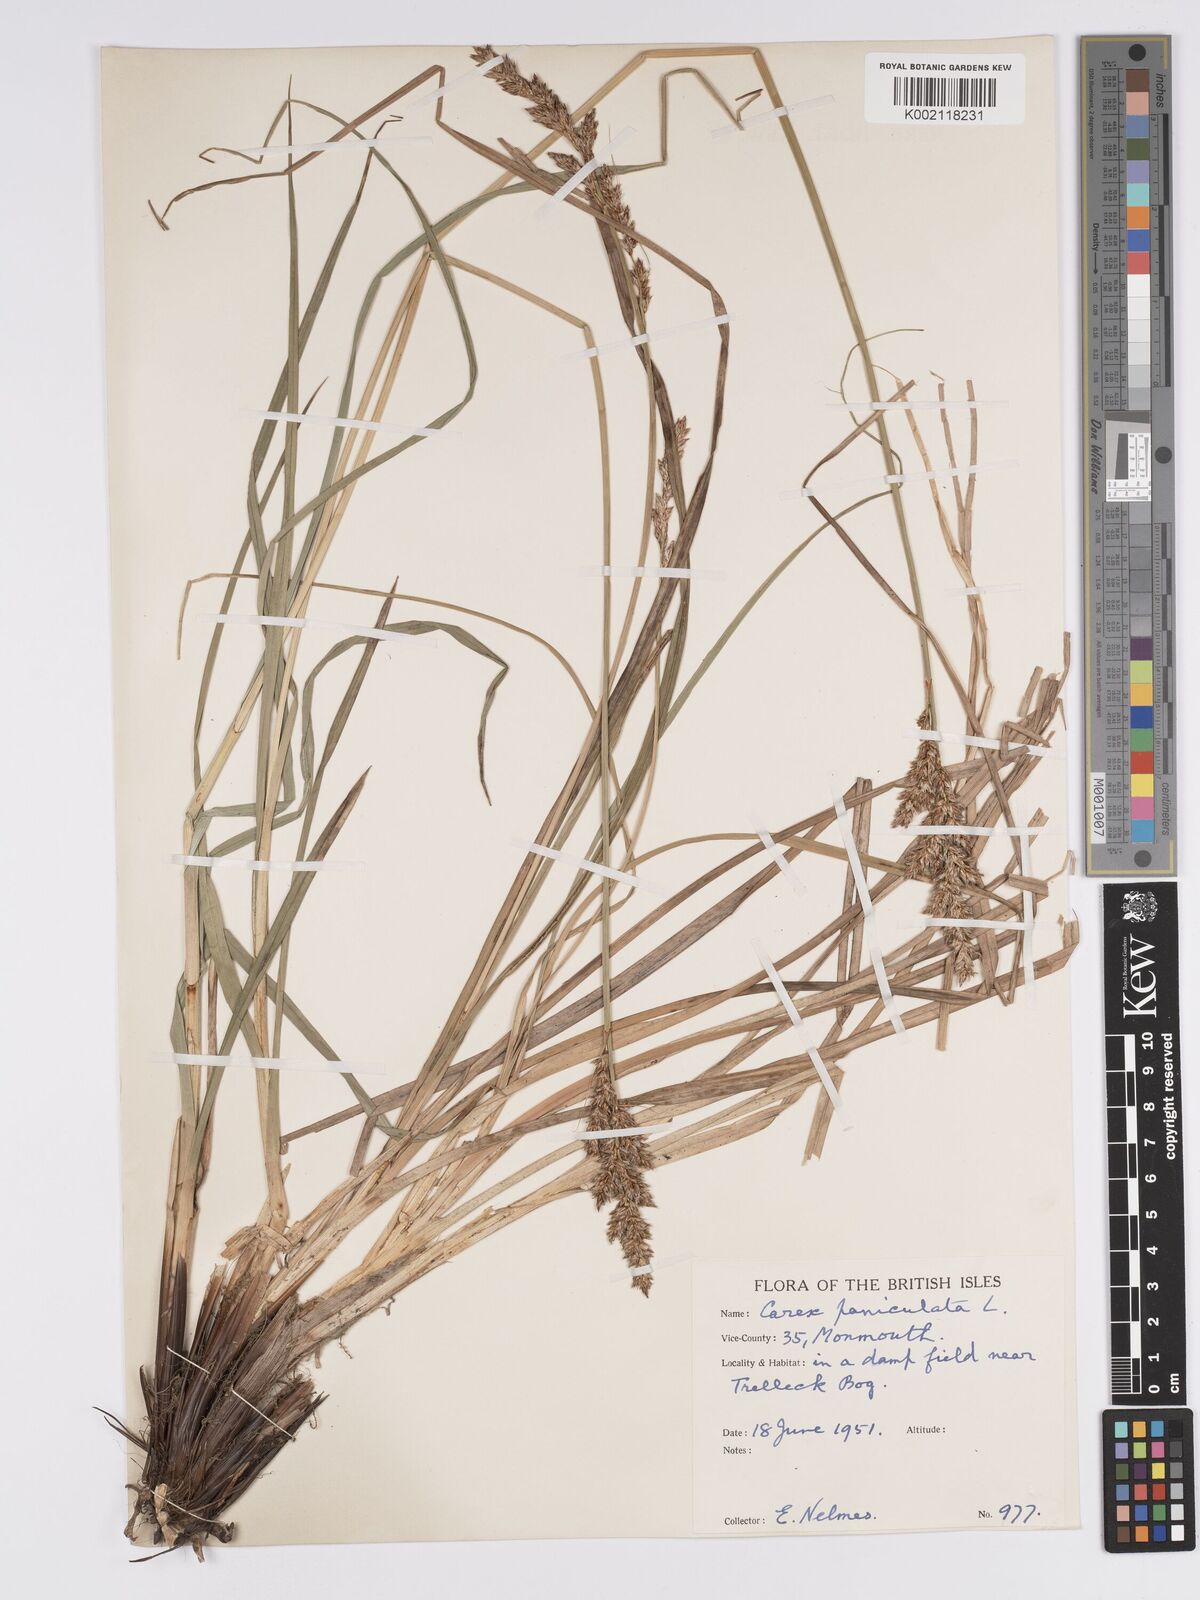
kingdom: Plantae
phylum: Tracheophyta
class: Liliopsida
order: Poales
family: Cyperaceae
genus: Carex
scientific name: Carex paniculata
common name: Greater tussock-sedge
